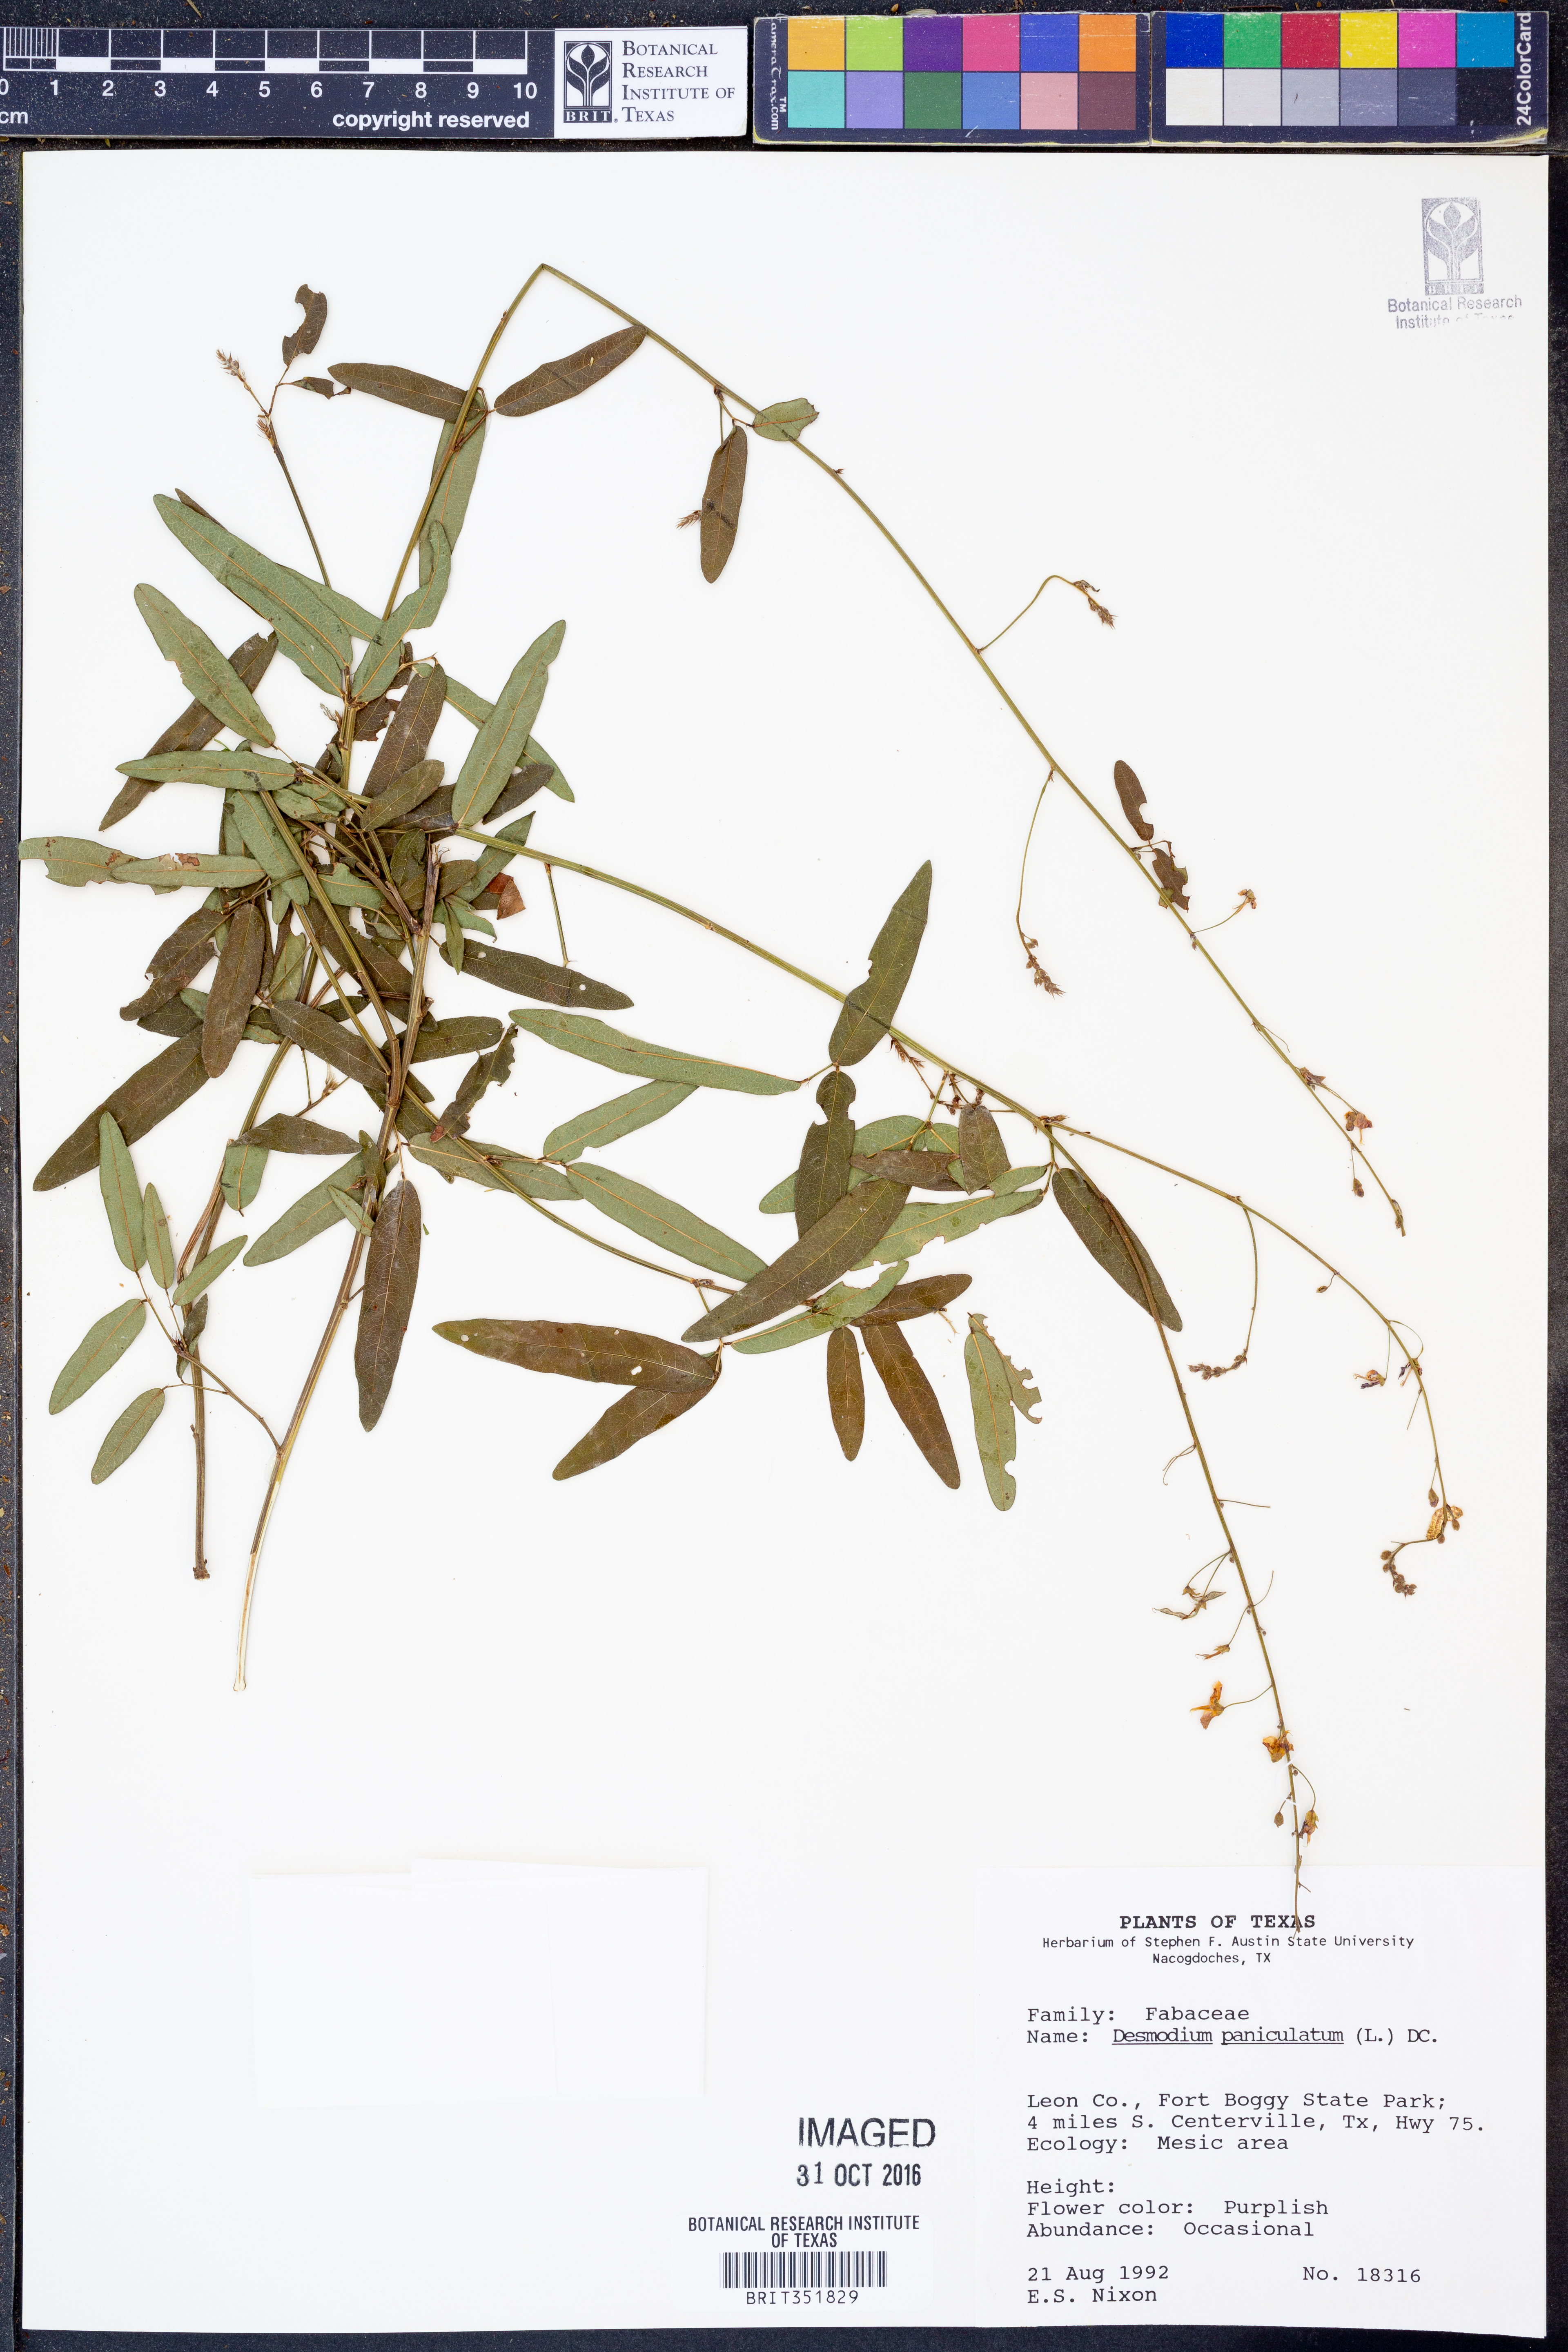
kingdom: Plantae
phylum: Tracheophyta
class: Magnoliopsida
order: Fabales
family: Fabaceae
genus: Desmodium
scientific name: Desmodium paniculatum
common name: Panicled tick-clover
